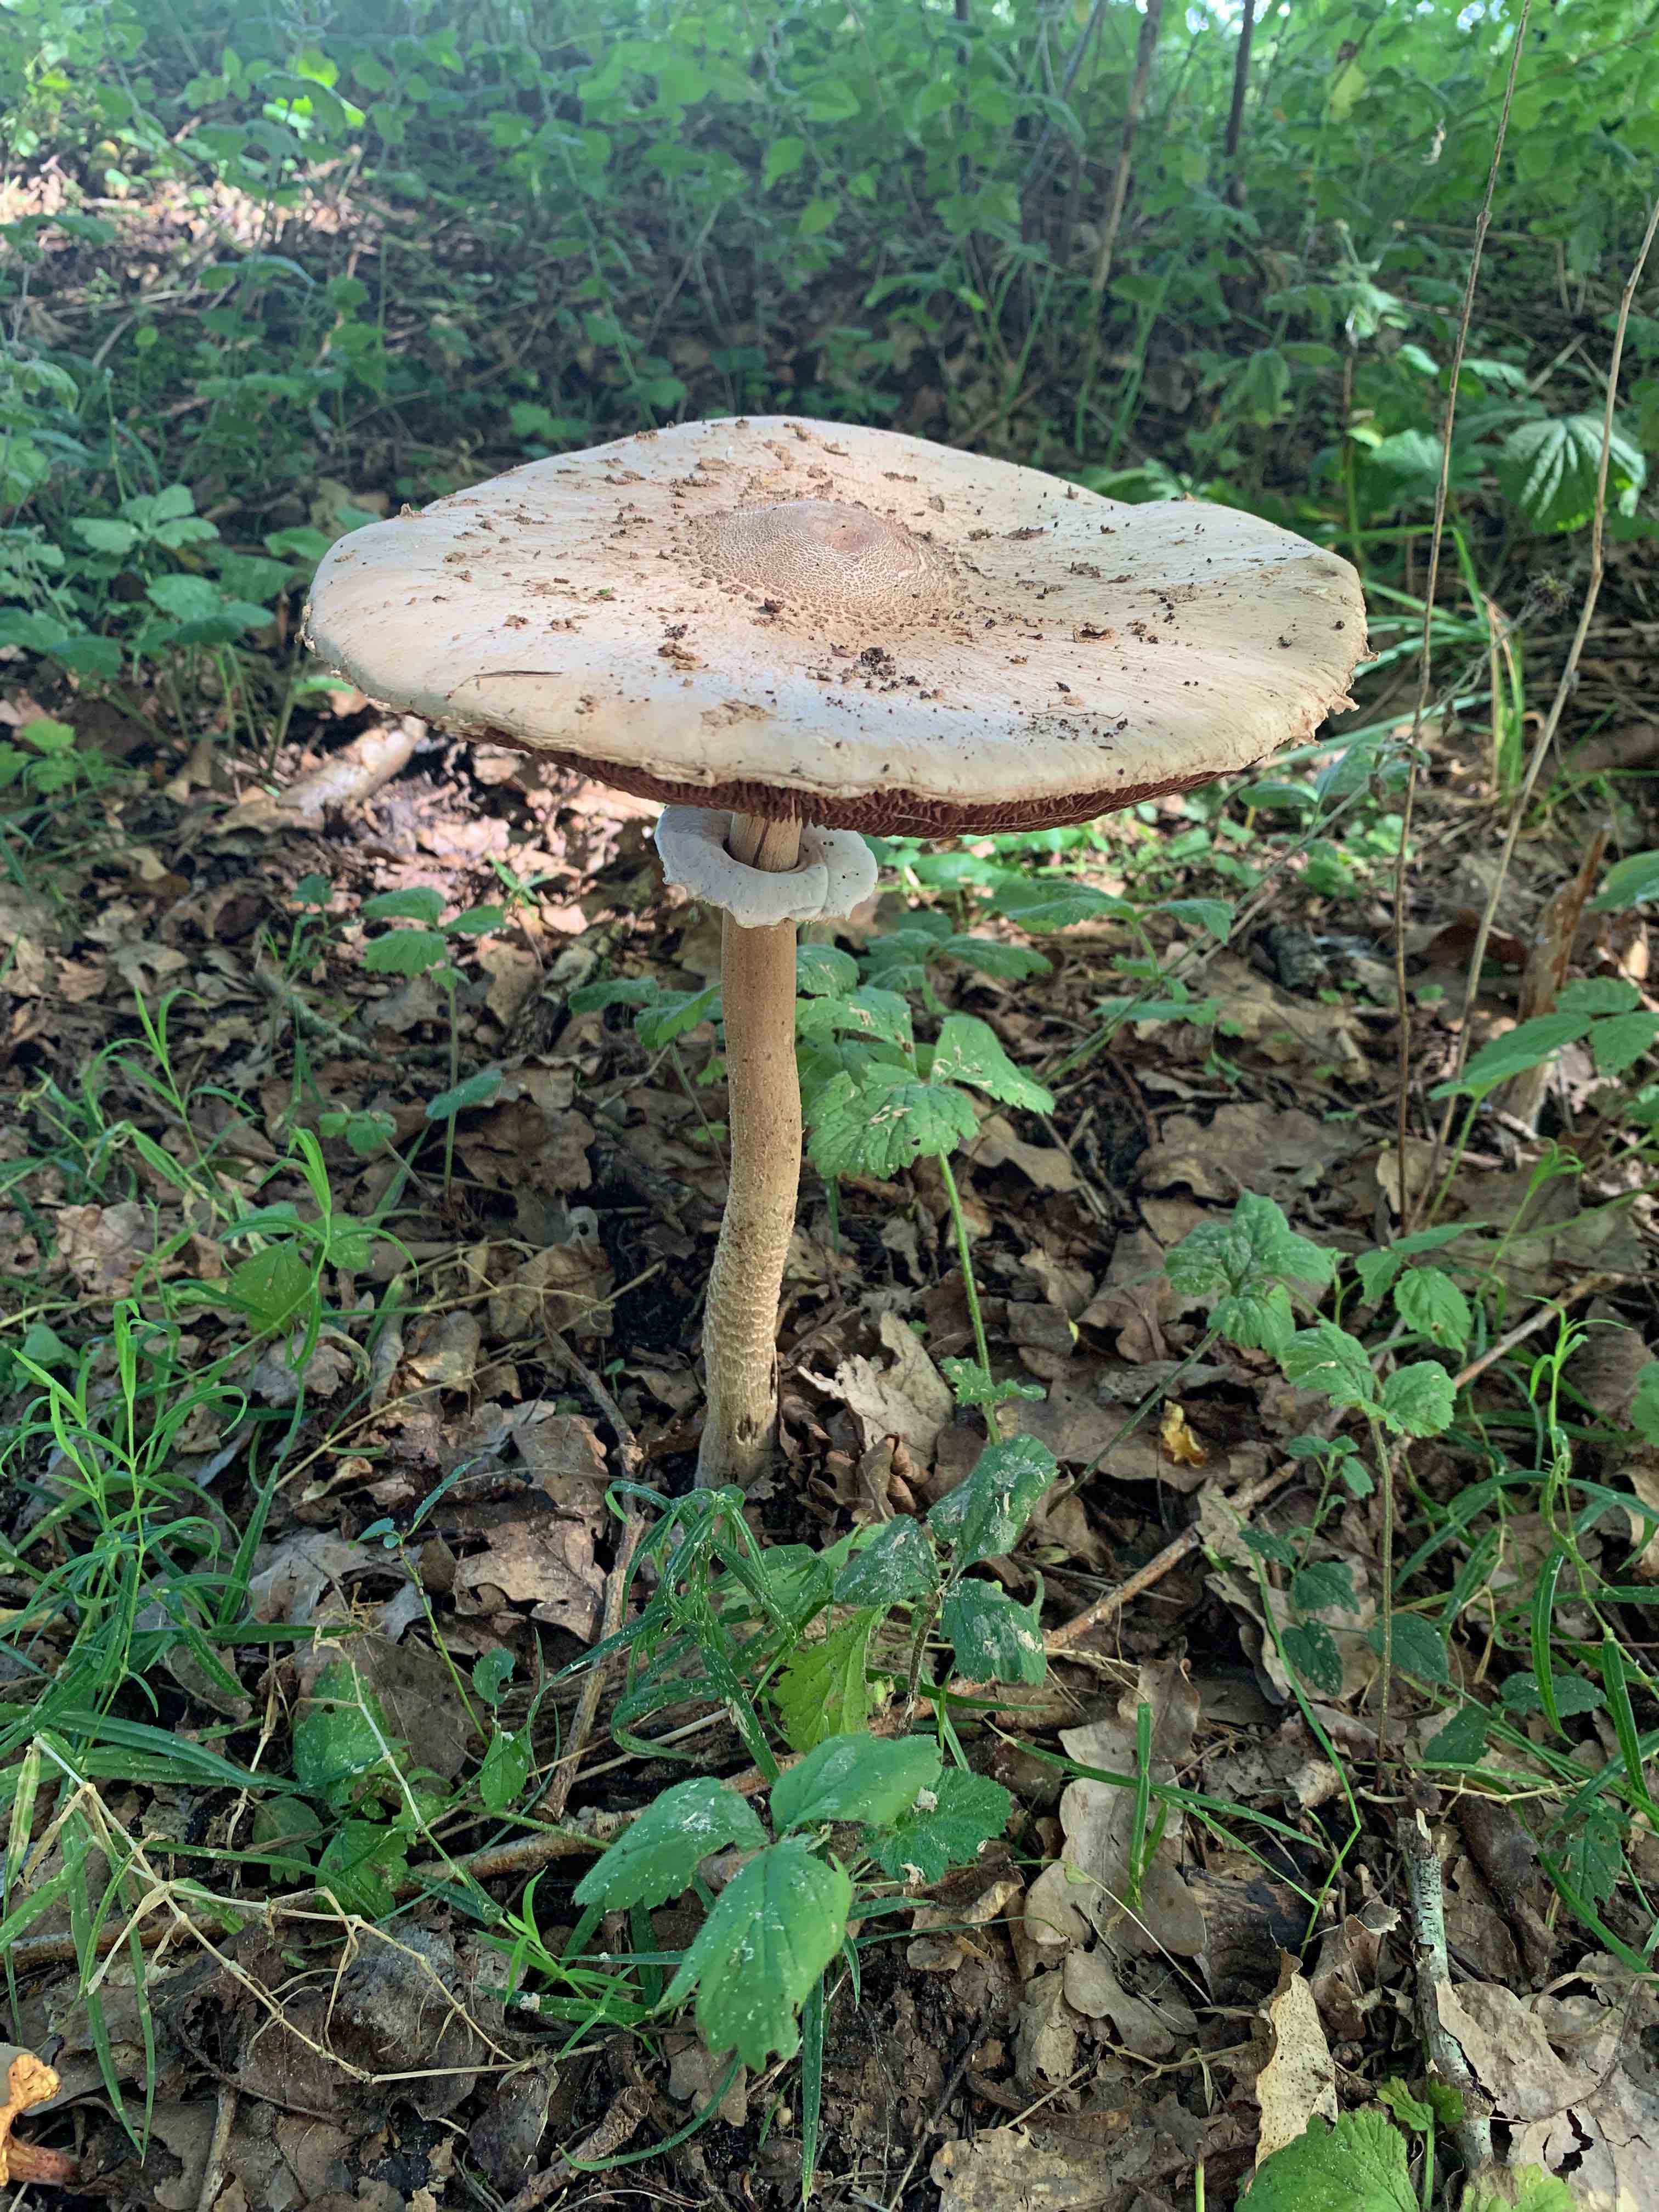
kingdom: Fungi
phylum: Basidiomycota
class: Agaricomycetes
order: Agaricales
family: Agaricaceae
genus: Macrolepiota
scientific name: Macrolepiota procera
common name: stor kæmpeparasolhat
